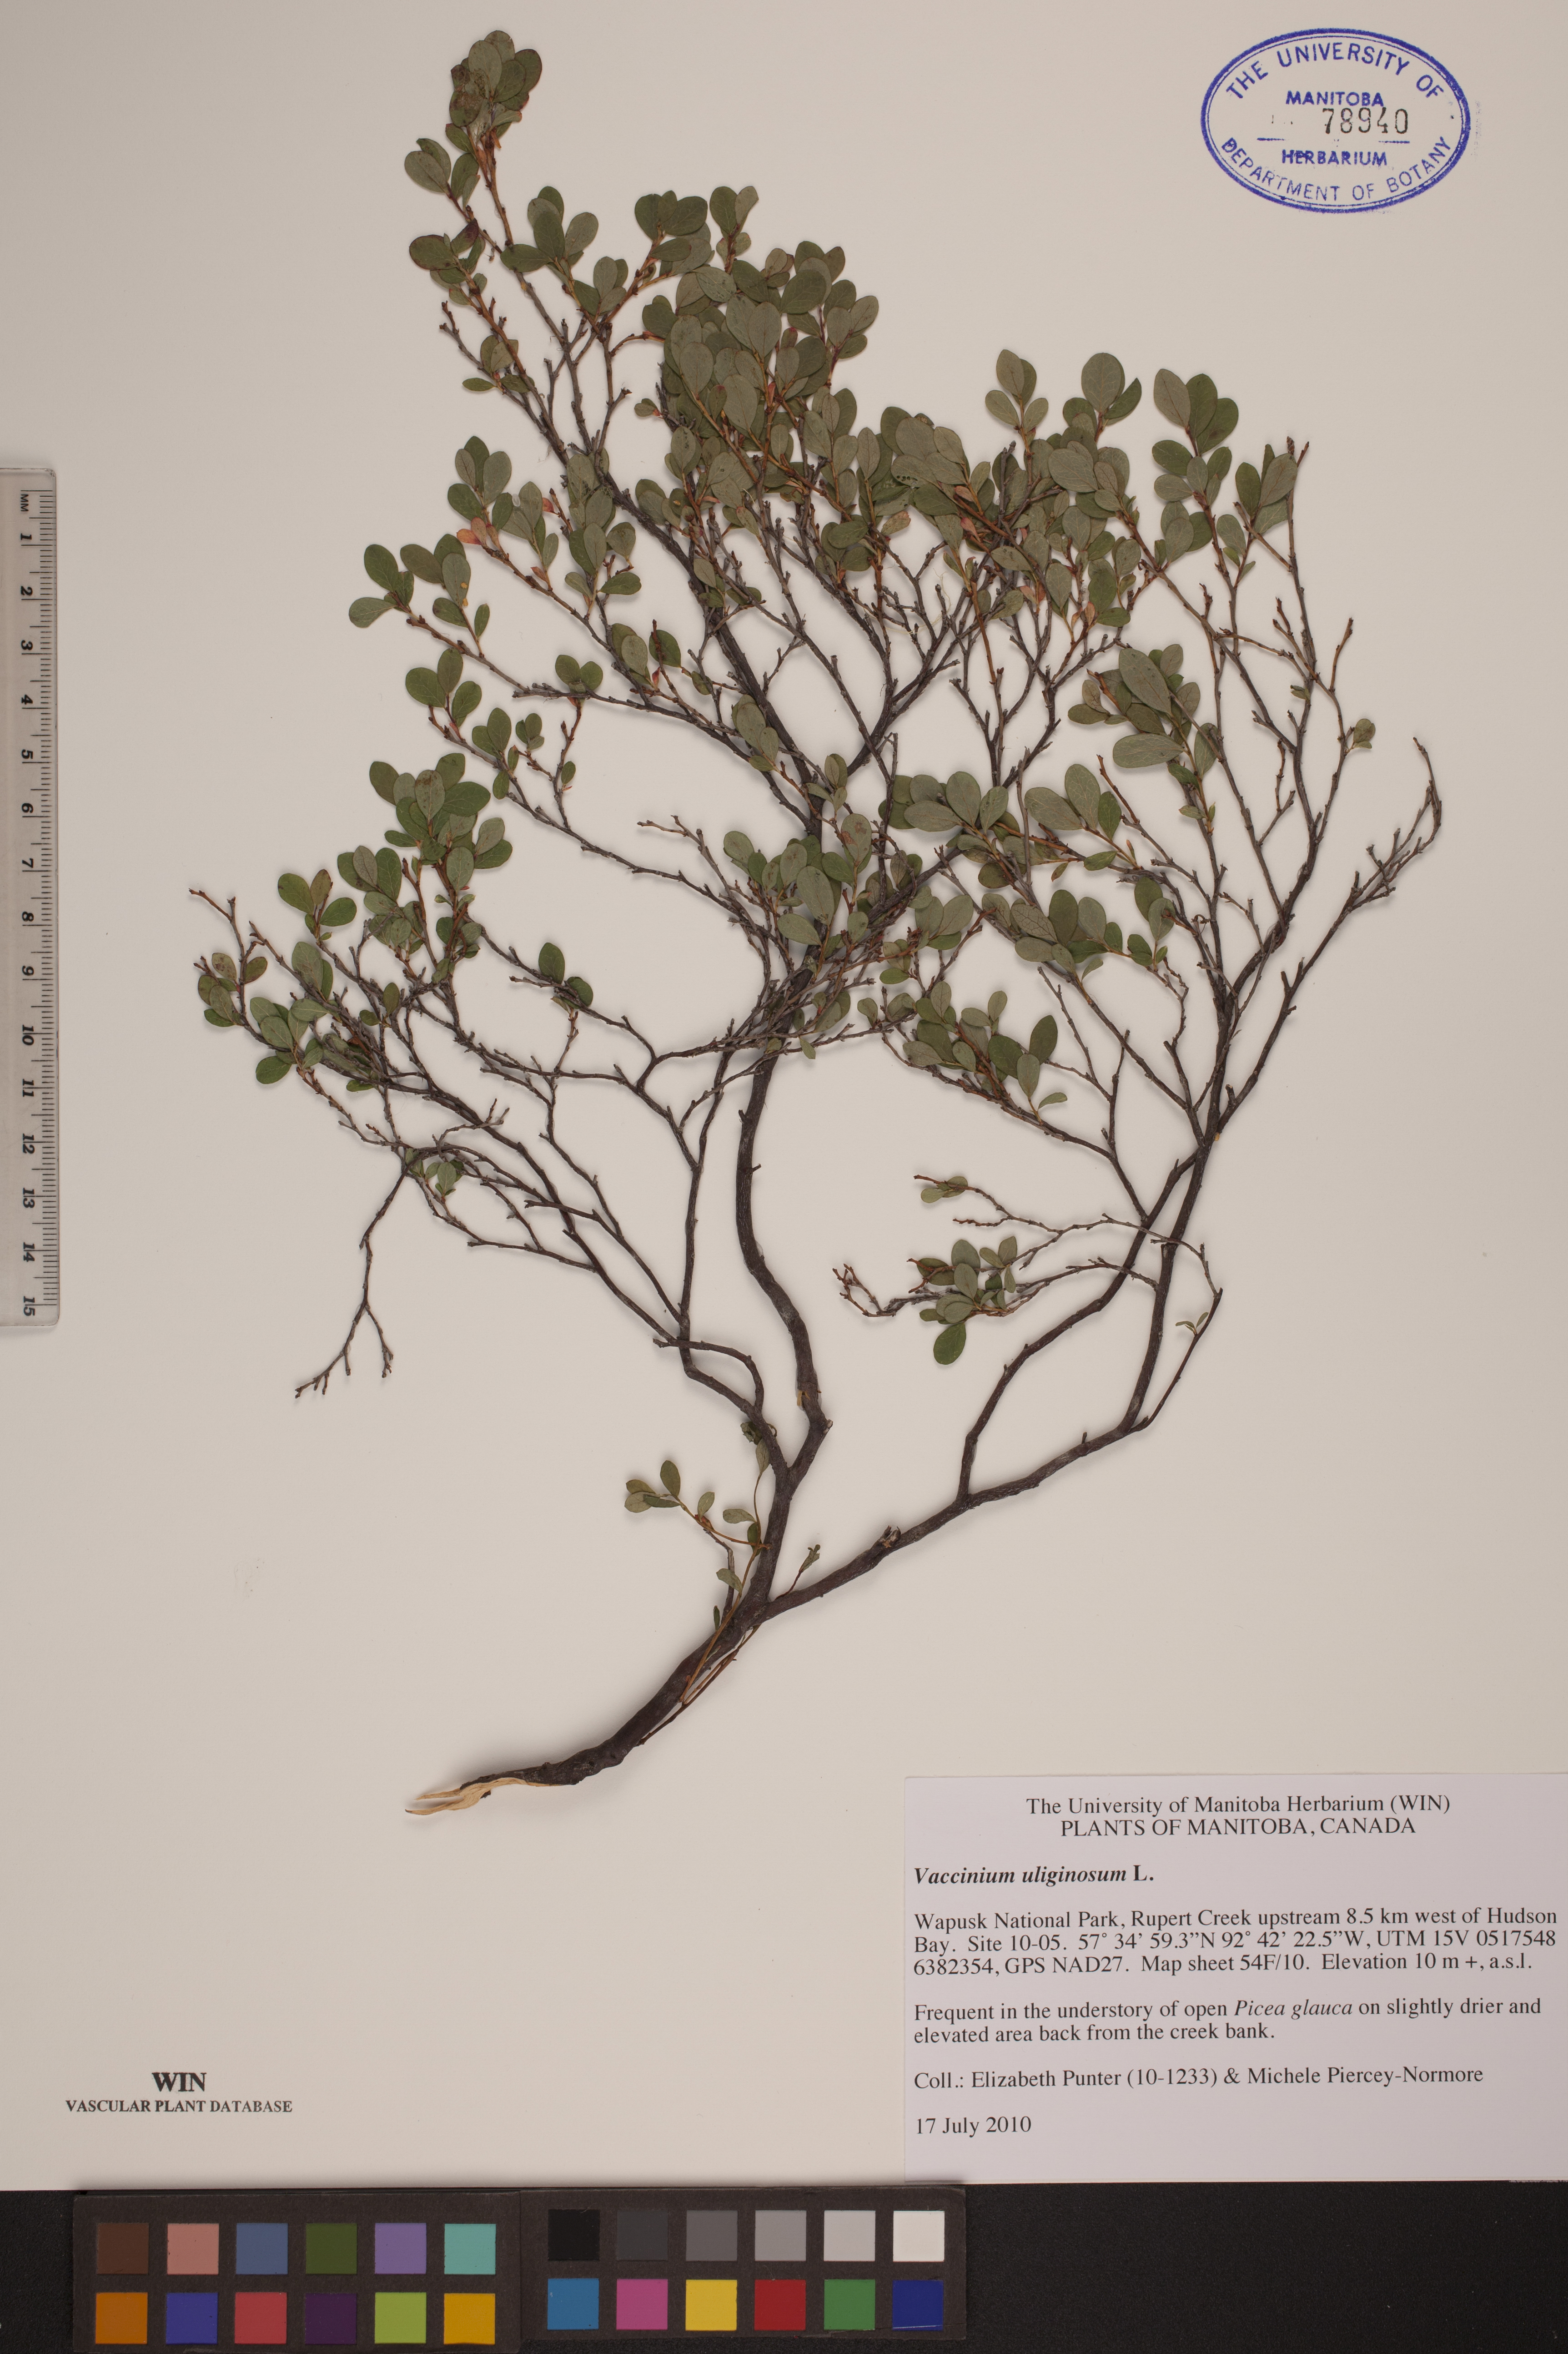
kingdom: Plantae
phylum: Tracheophyta
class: Magnoliopsida
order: Ericales
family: Ericaceae
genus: Vaccinium
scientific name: Vaccinium uliginosum
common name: Bog bilberry
